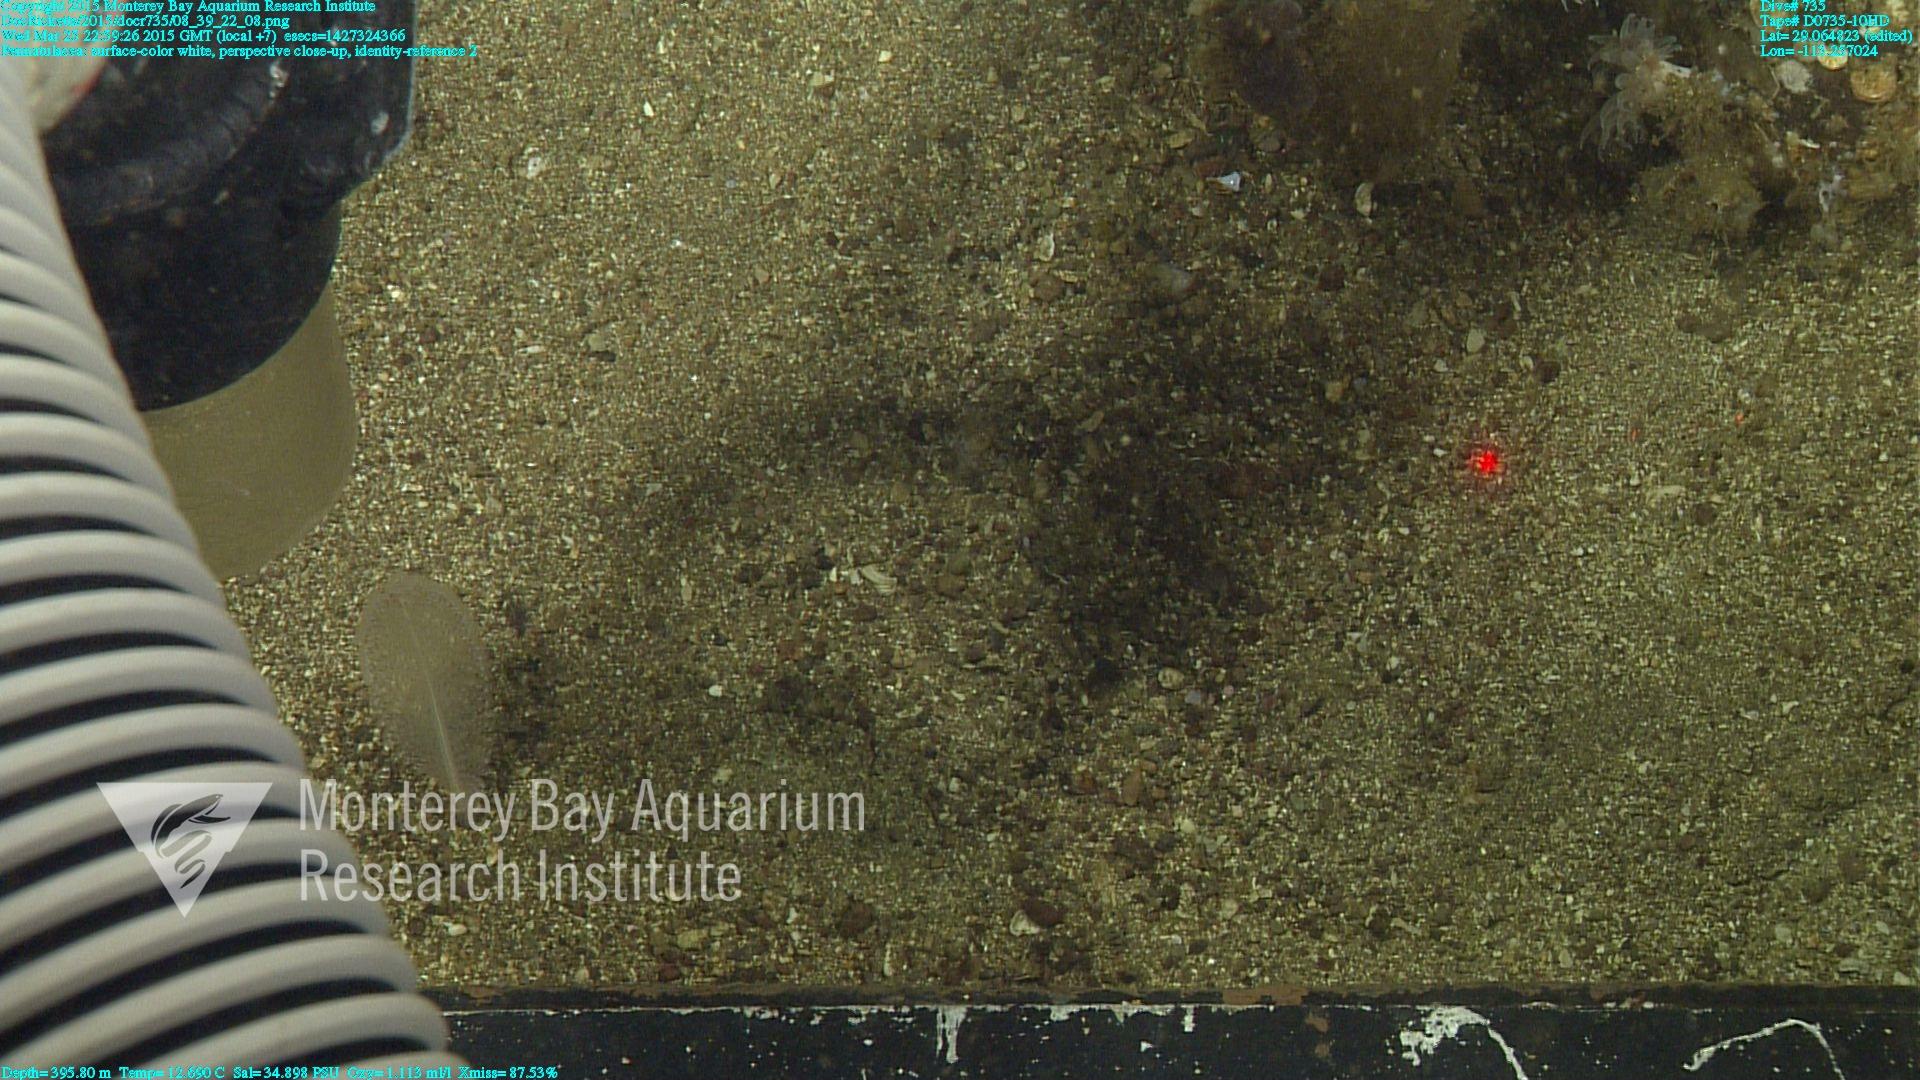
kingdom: Animalia
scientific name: Animalia
